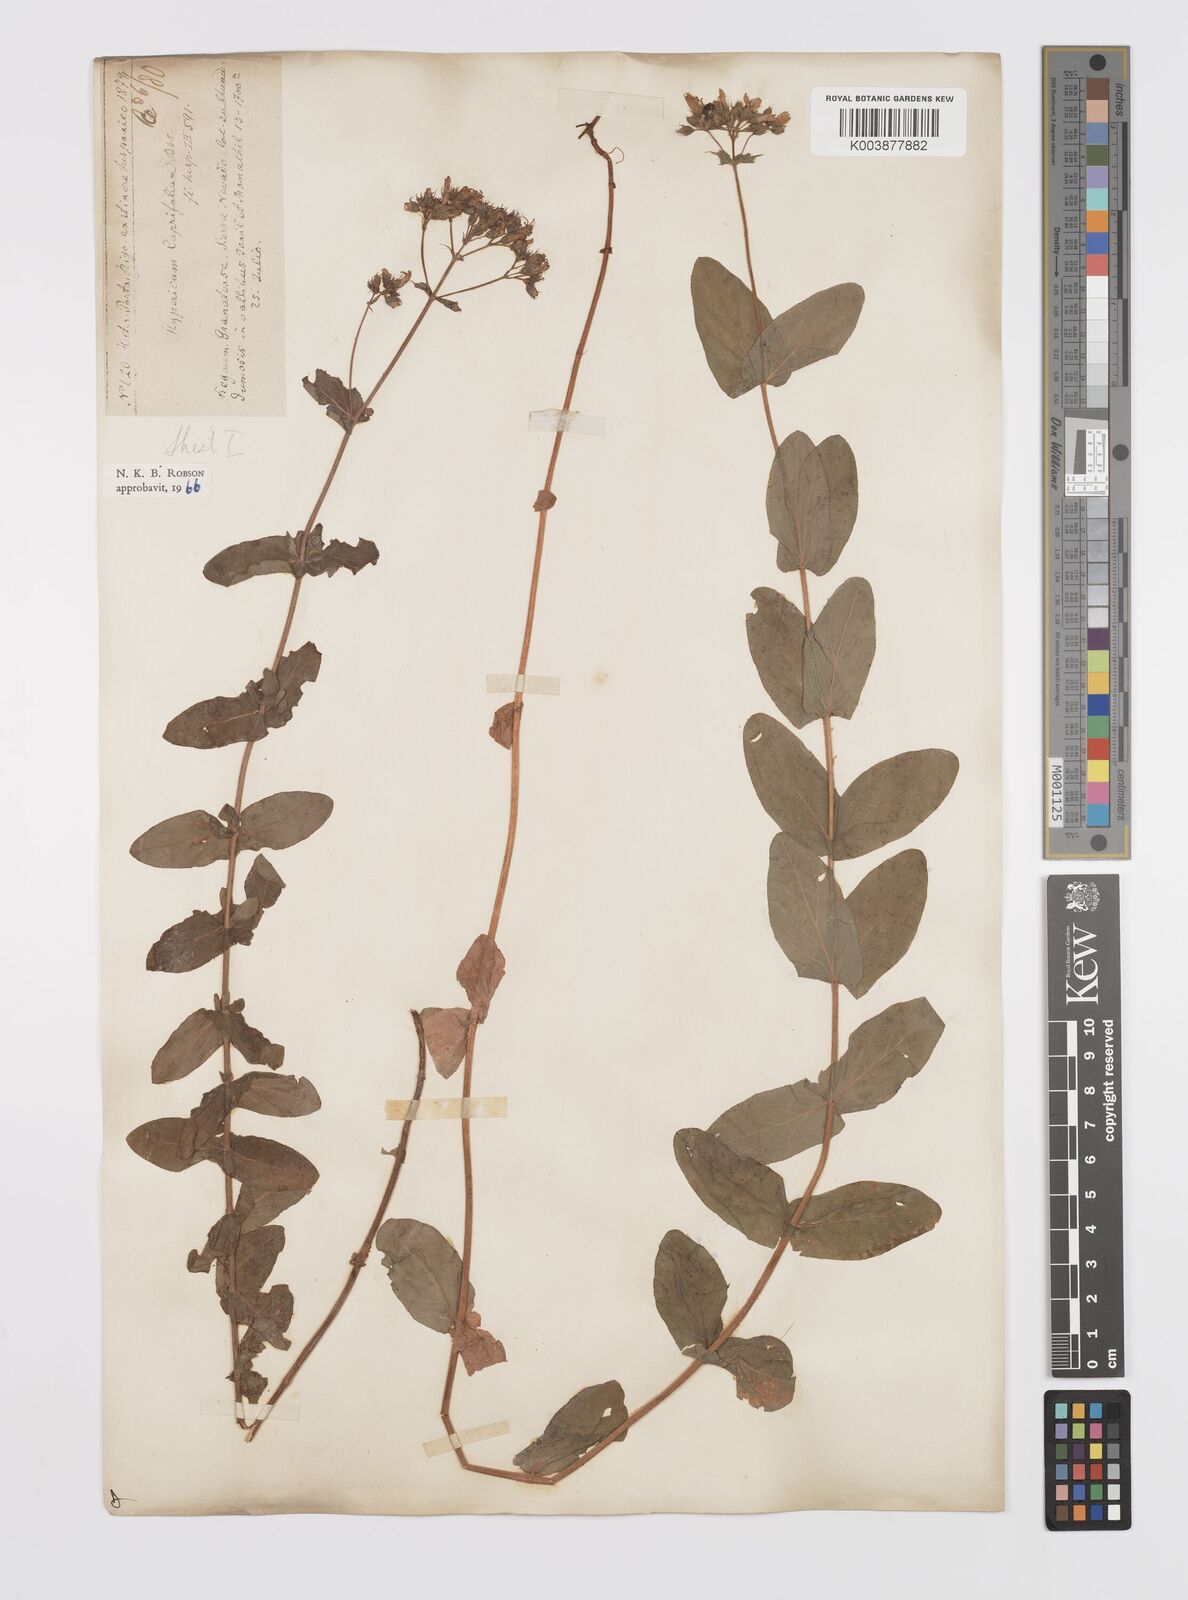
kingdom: Plantae
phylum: Tracheophyta
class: Magnoliopsida
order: Malpighiales
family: Hypericaceae
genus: Hypericum
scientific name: Hypericum caprifolium
